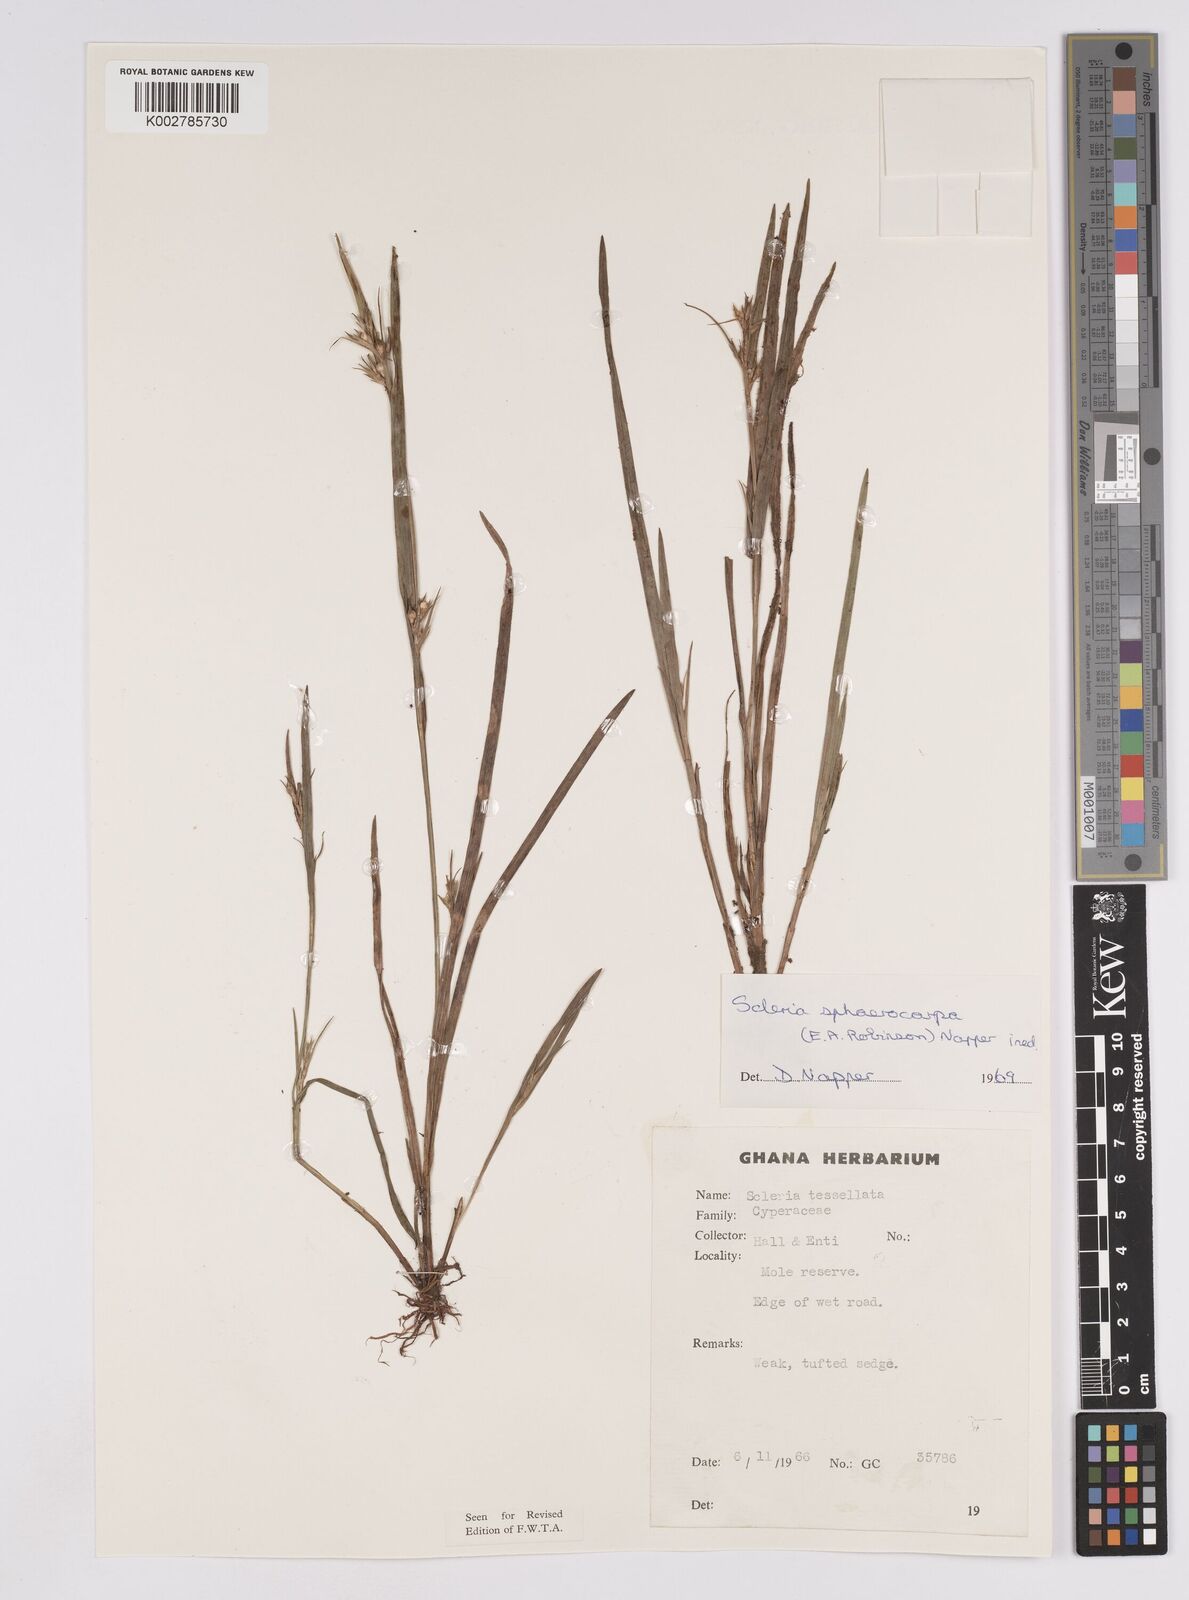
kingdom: Plantae
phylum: Tracheophyta
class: Liliopsida
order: Poales
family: Cyperaceae
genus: Scleria
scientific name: Scleria tessellata
